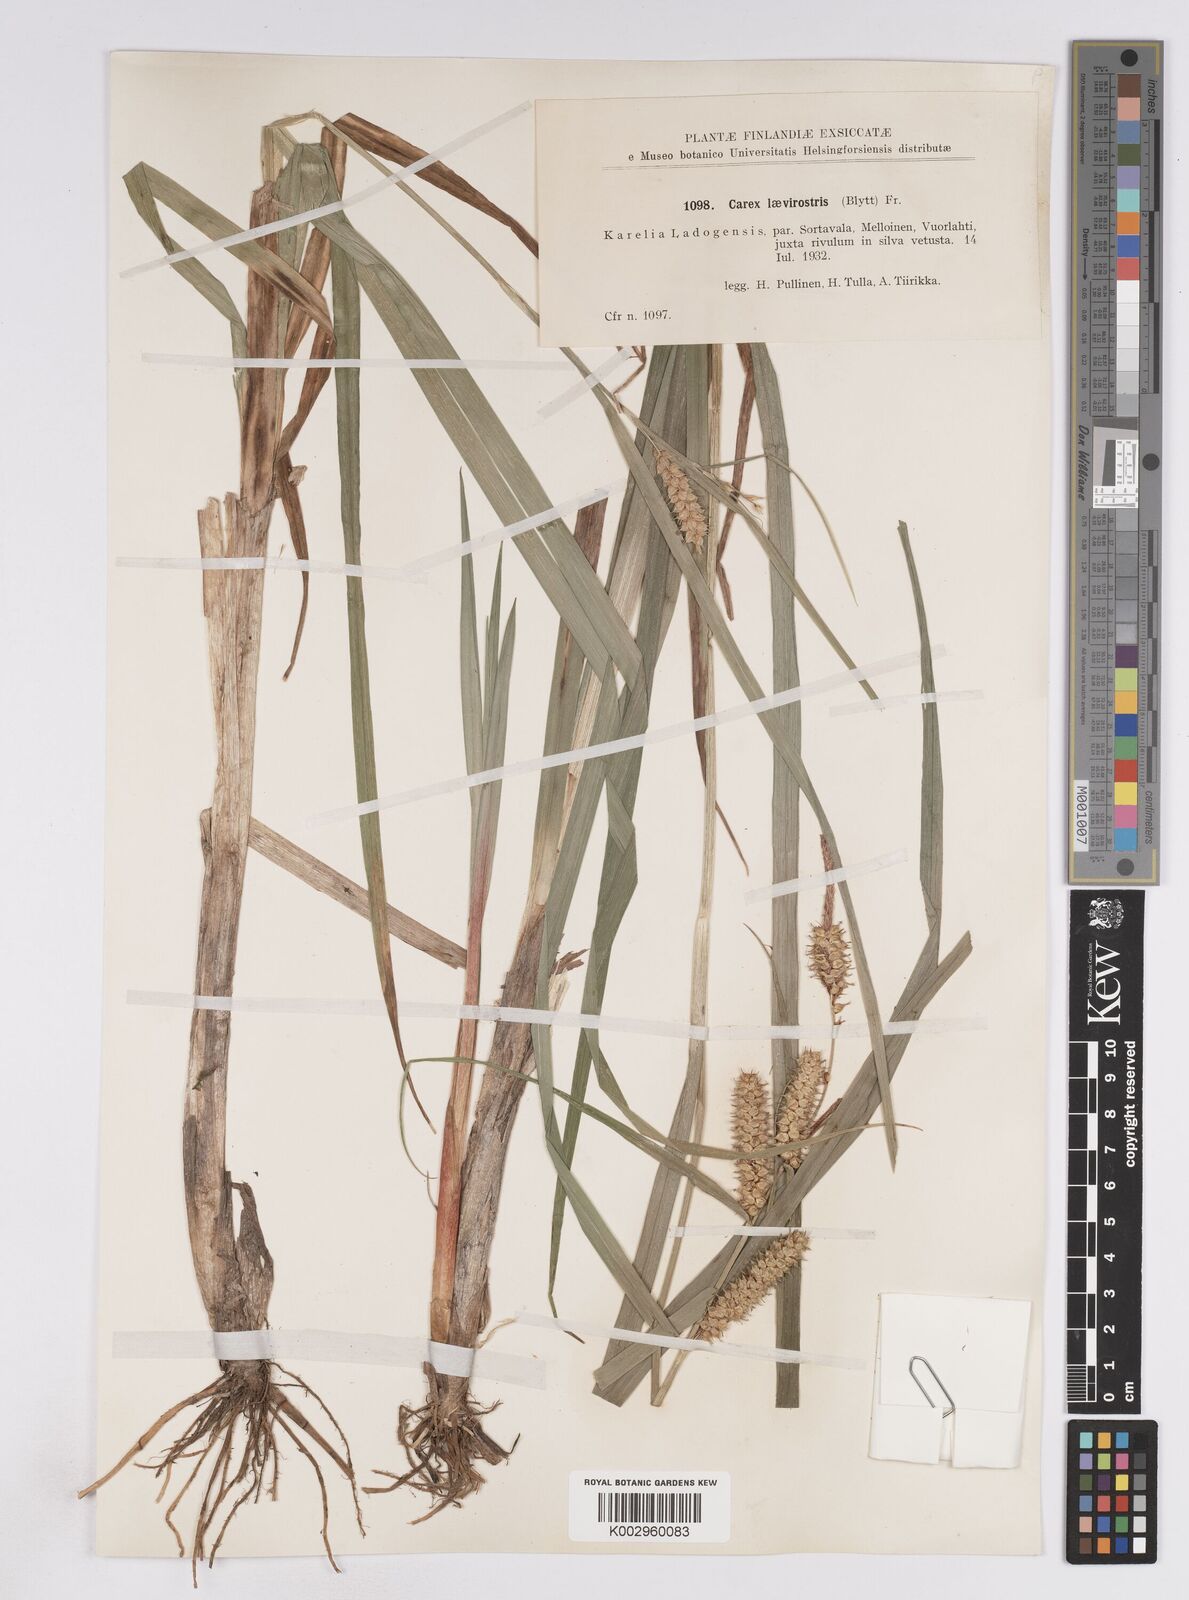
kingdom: Plantae
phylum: Tracheophyta
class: Liliopsida
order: Poales
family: Cyperaceae
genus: Carex
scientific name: Carex utriculata
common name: Beaked sedge
